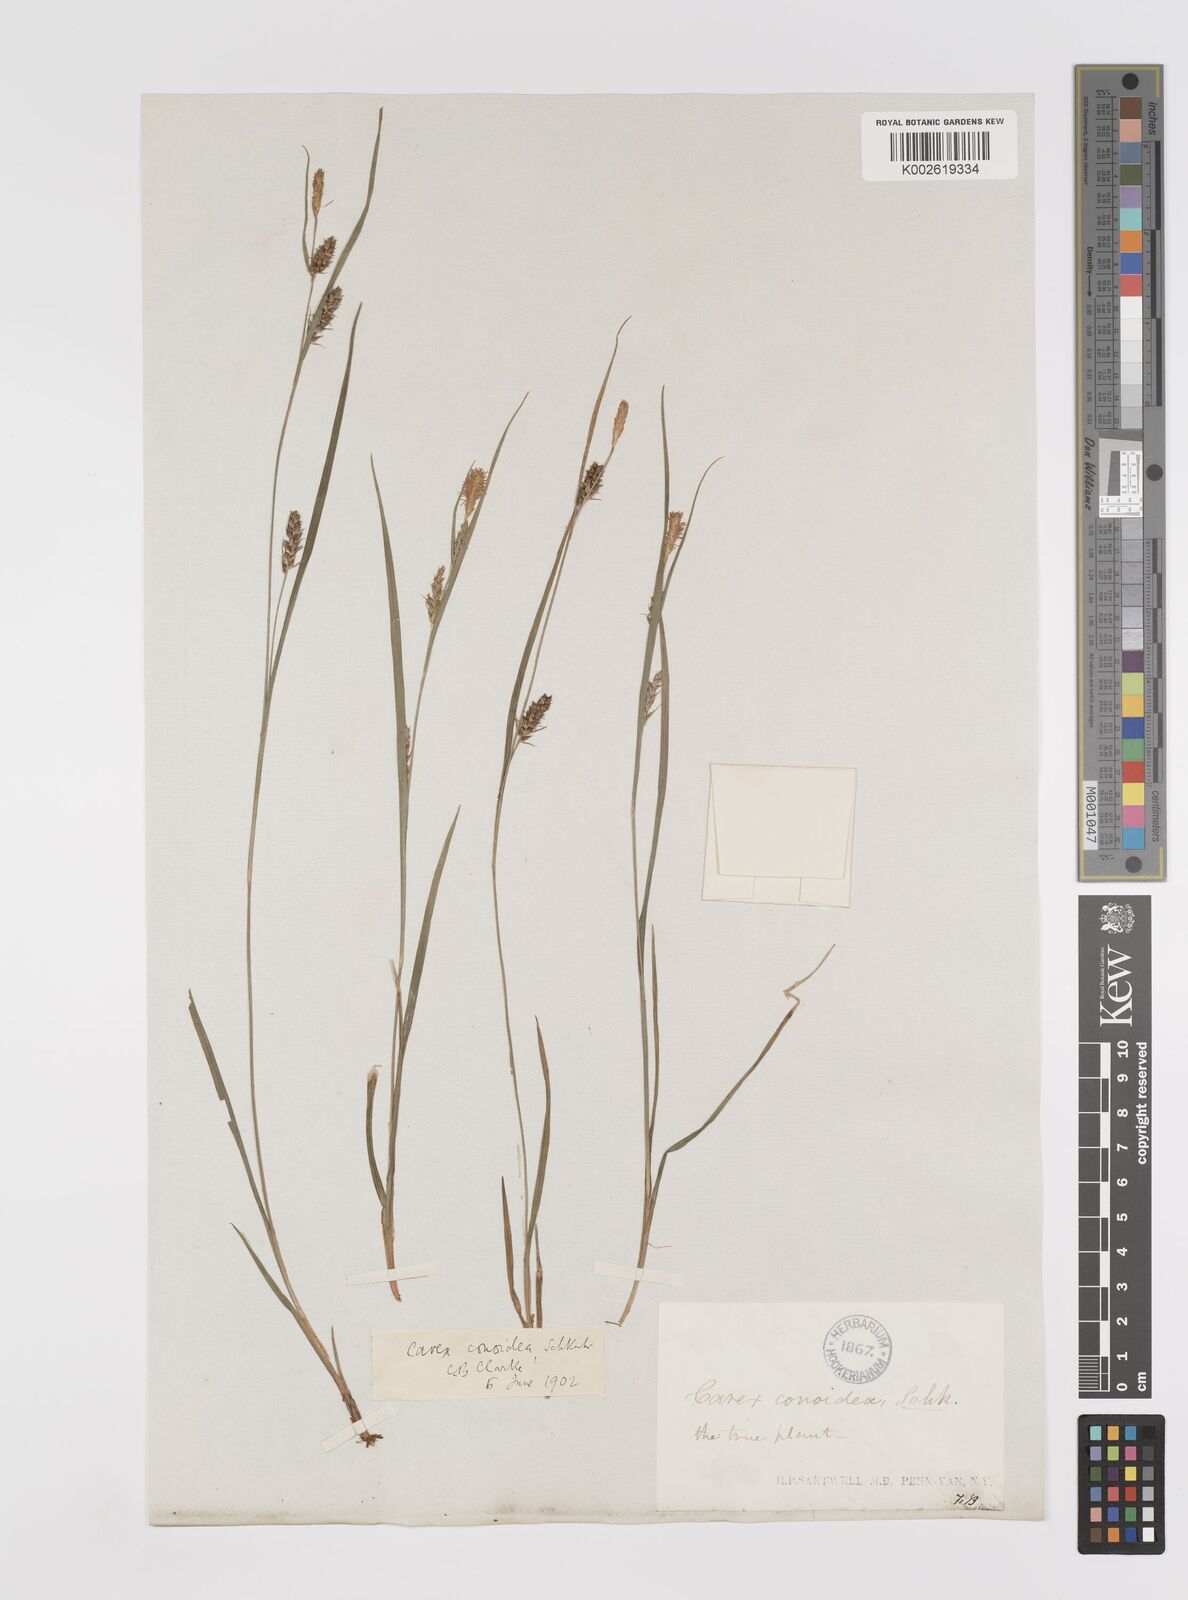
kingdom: Plantae
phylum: Tracheophyta
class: Liliopsida
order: Poales
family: Cyperaceae
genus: Carex
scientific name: Carex conoidea
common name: Cone shaped sedge
